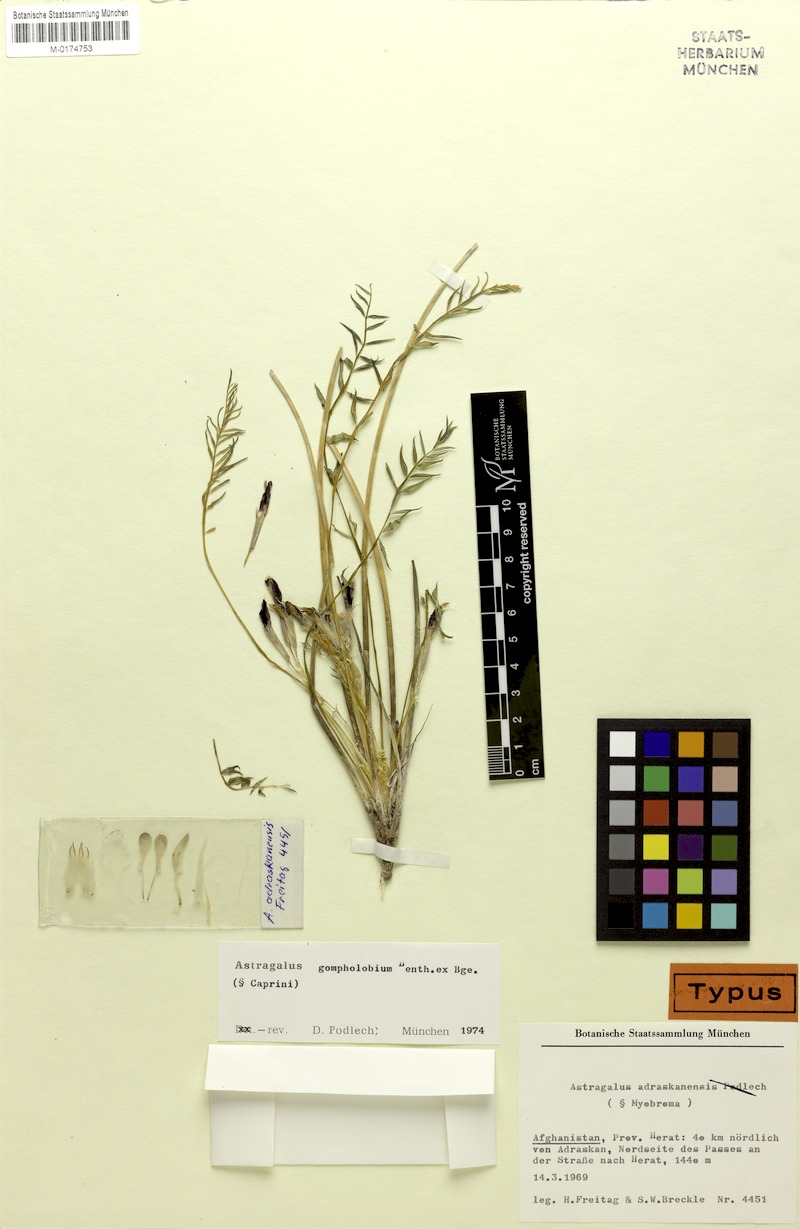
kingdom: Plantae
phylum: Tracheophyta
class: Magnoliopsida
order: Fabales
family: Fabaceae
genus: Astragalus
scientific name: Astragalus gompholobium
